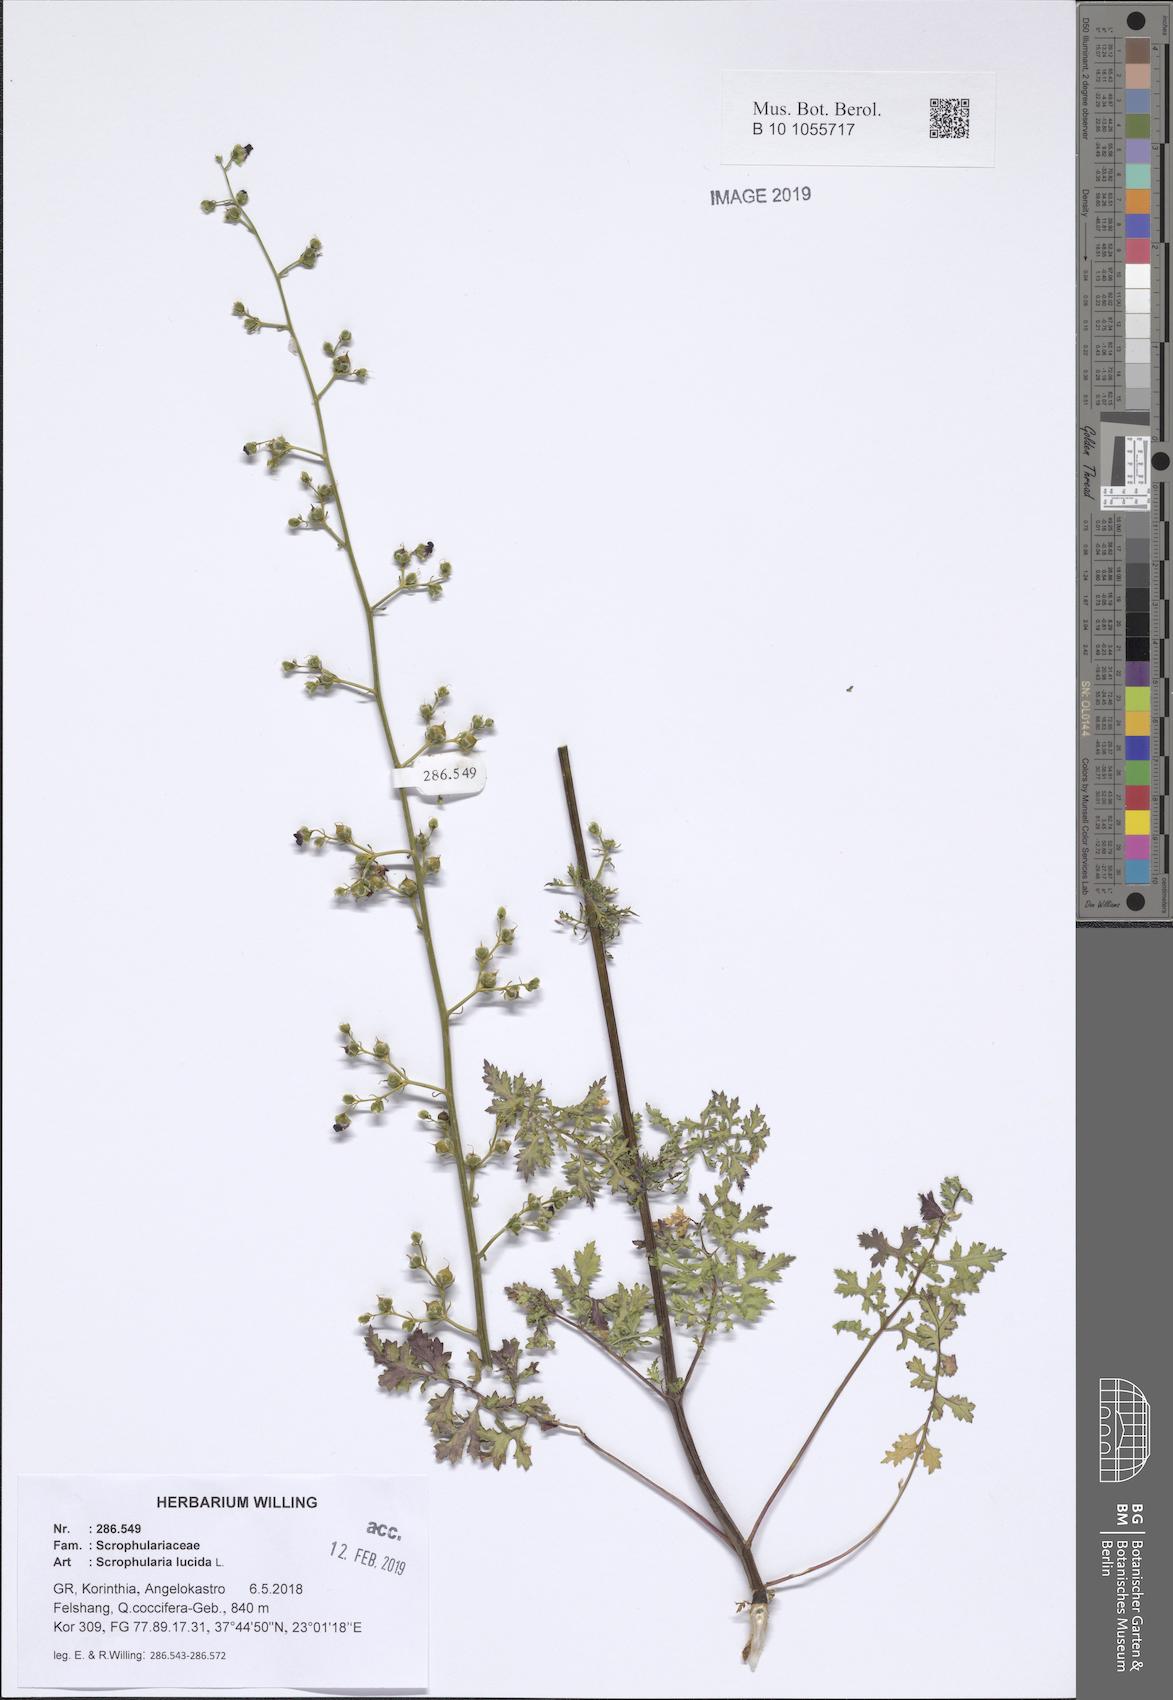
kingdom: Plantae
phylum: Tracheophyta
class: Magnoliopsida
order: Lamiales
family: Scrophulariaceae
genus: Scrophularia
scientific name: Scrophularia lucida
